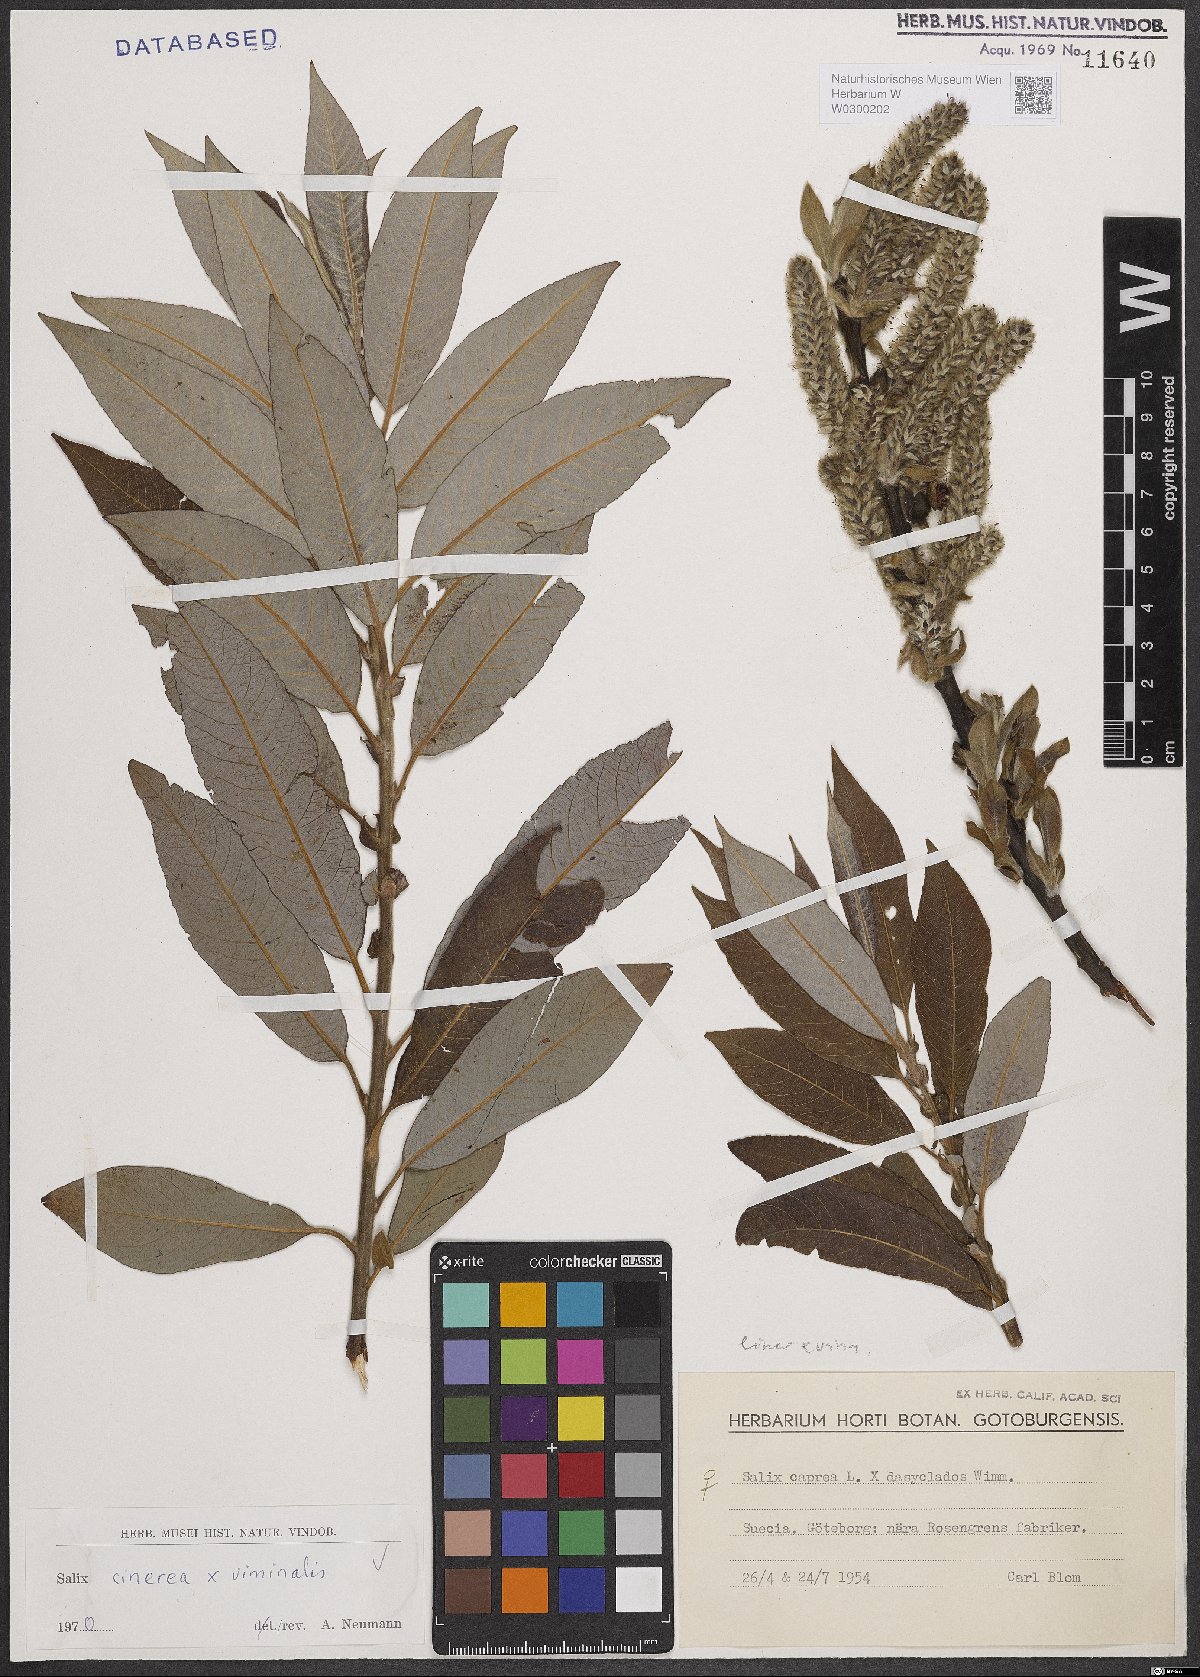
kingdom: Plantae
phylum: Tracheophyta
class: Magnoliopsida
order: Malpighiales
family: Salicaceae
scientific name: Salicaceae
